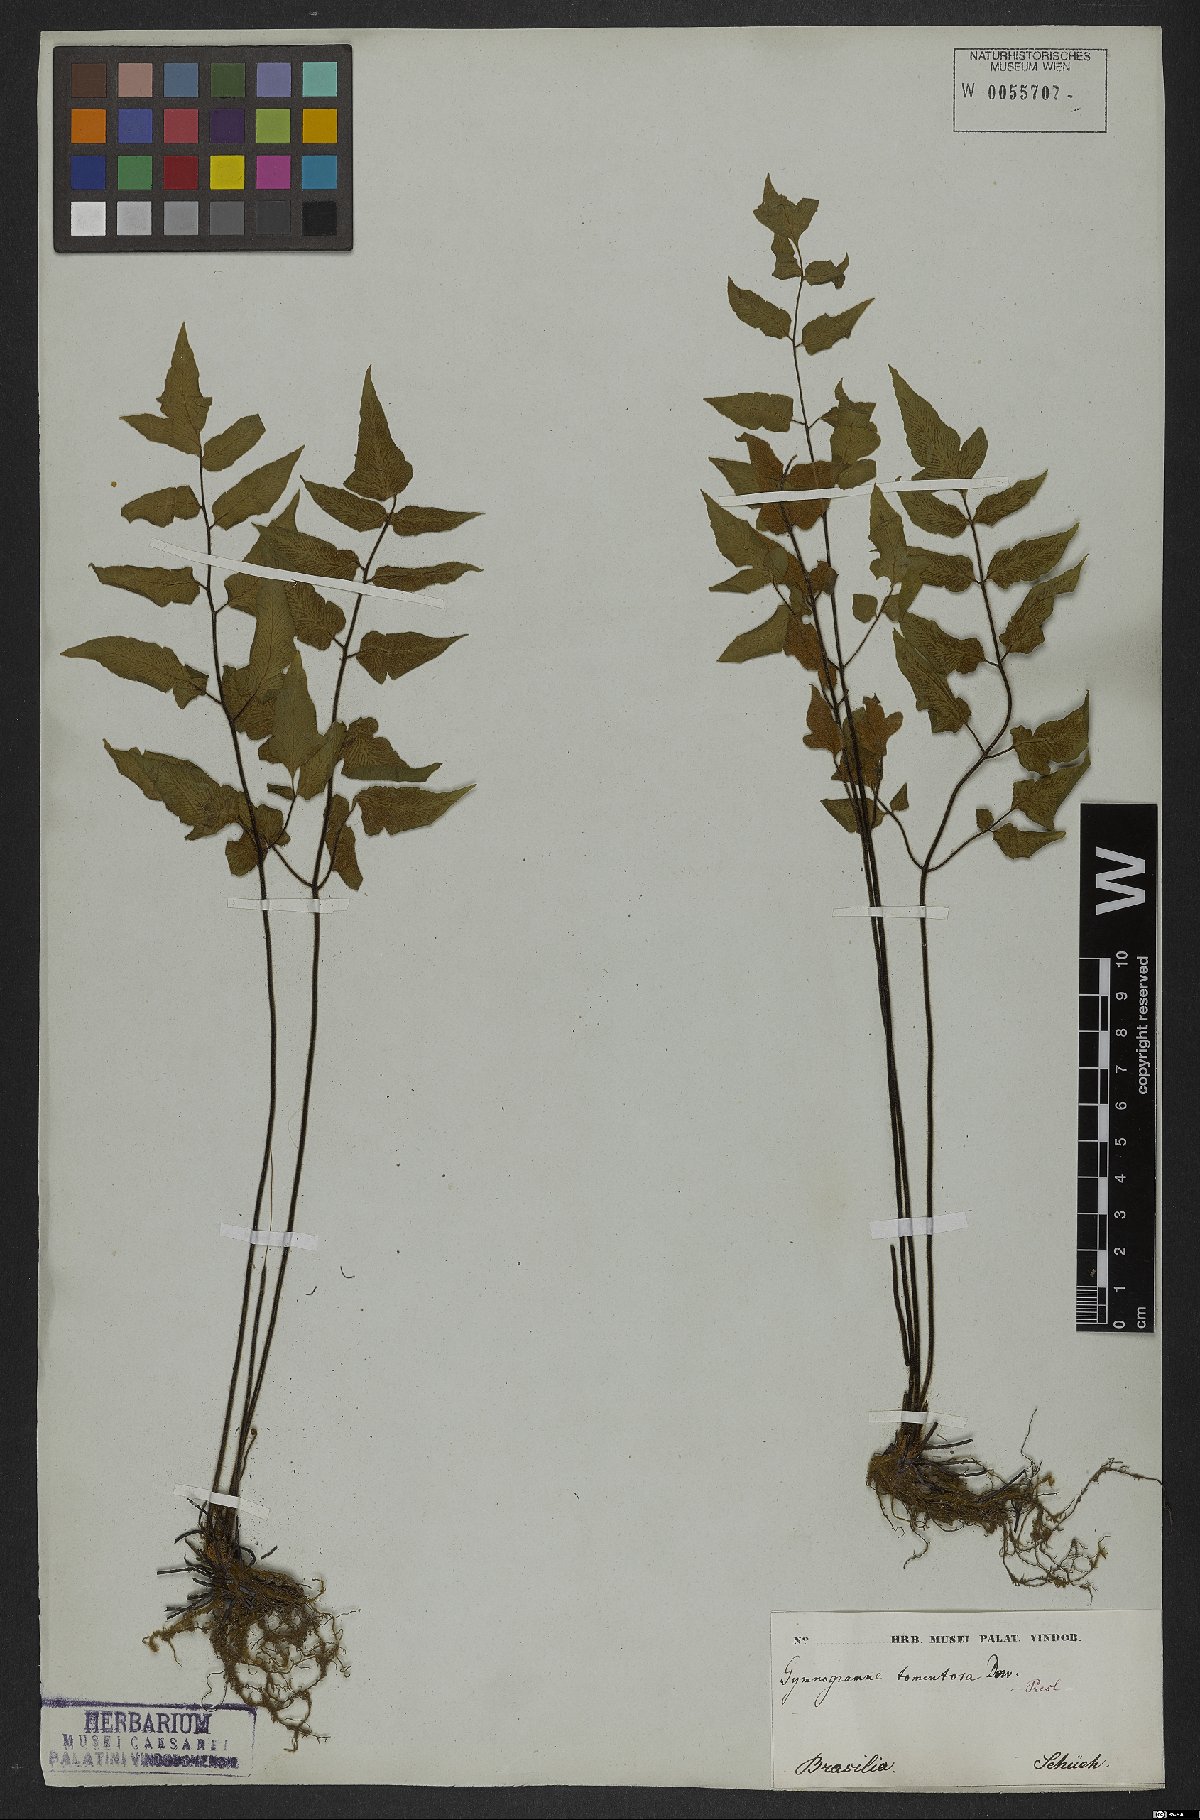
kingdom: Plantae
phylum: Tracheophyta
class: Polypodiopsida
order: Polypodiales
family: Pteridaceae
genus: Hemionitis
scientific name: Hemionitis tomentosa
